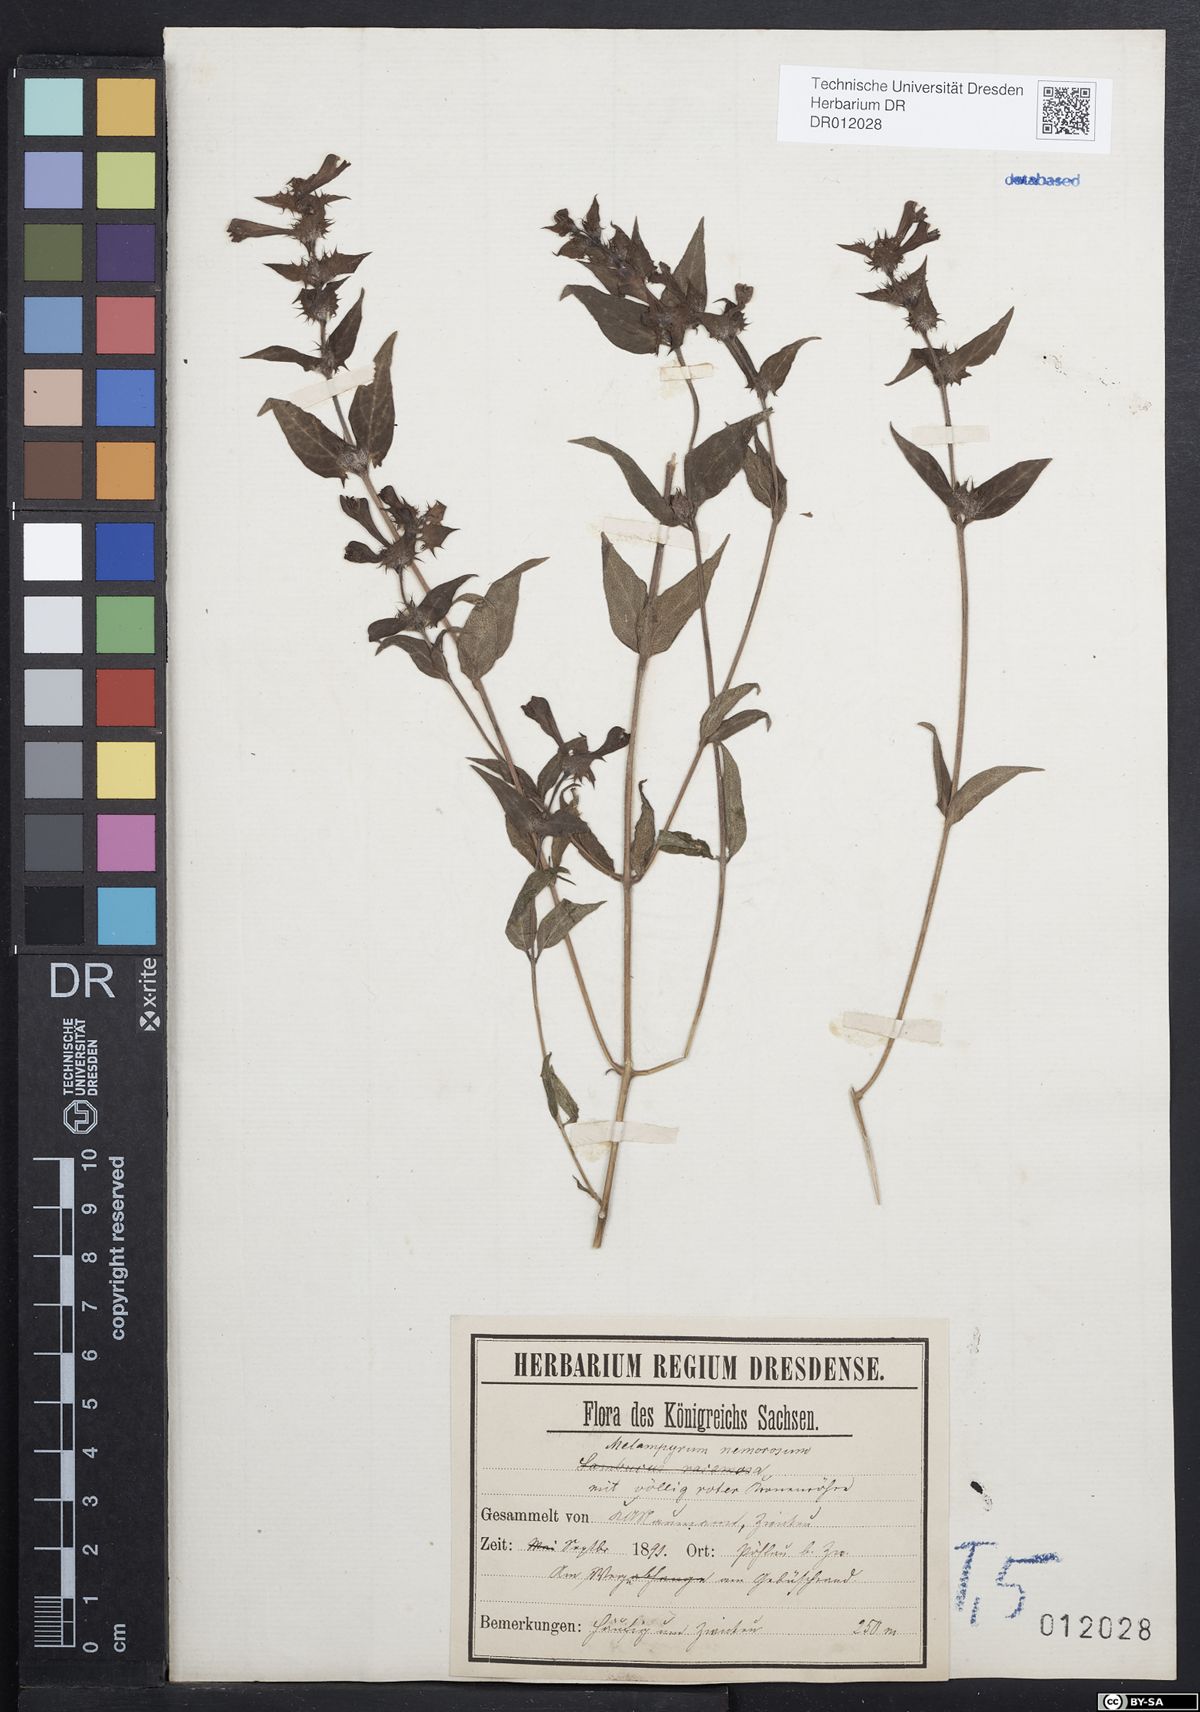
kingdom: Plantae
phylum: Tracheophyta
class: Magnoliopsida
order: Lamiales
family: Orobanchaceae
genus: Melampyrum
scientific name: Melampyrum nemorosum
